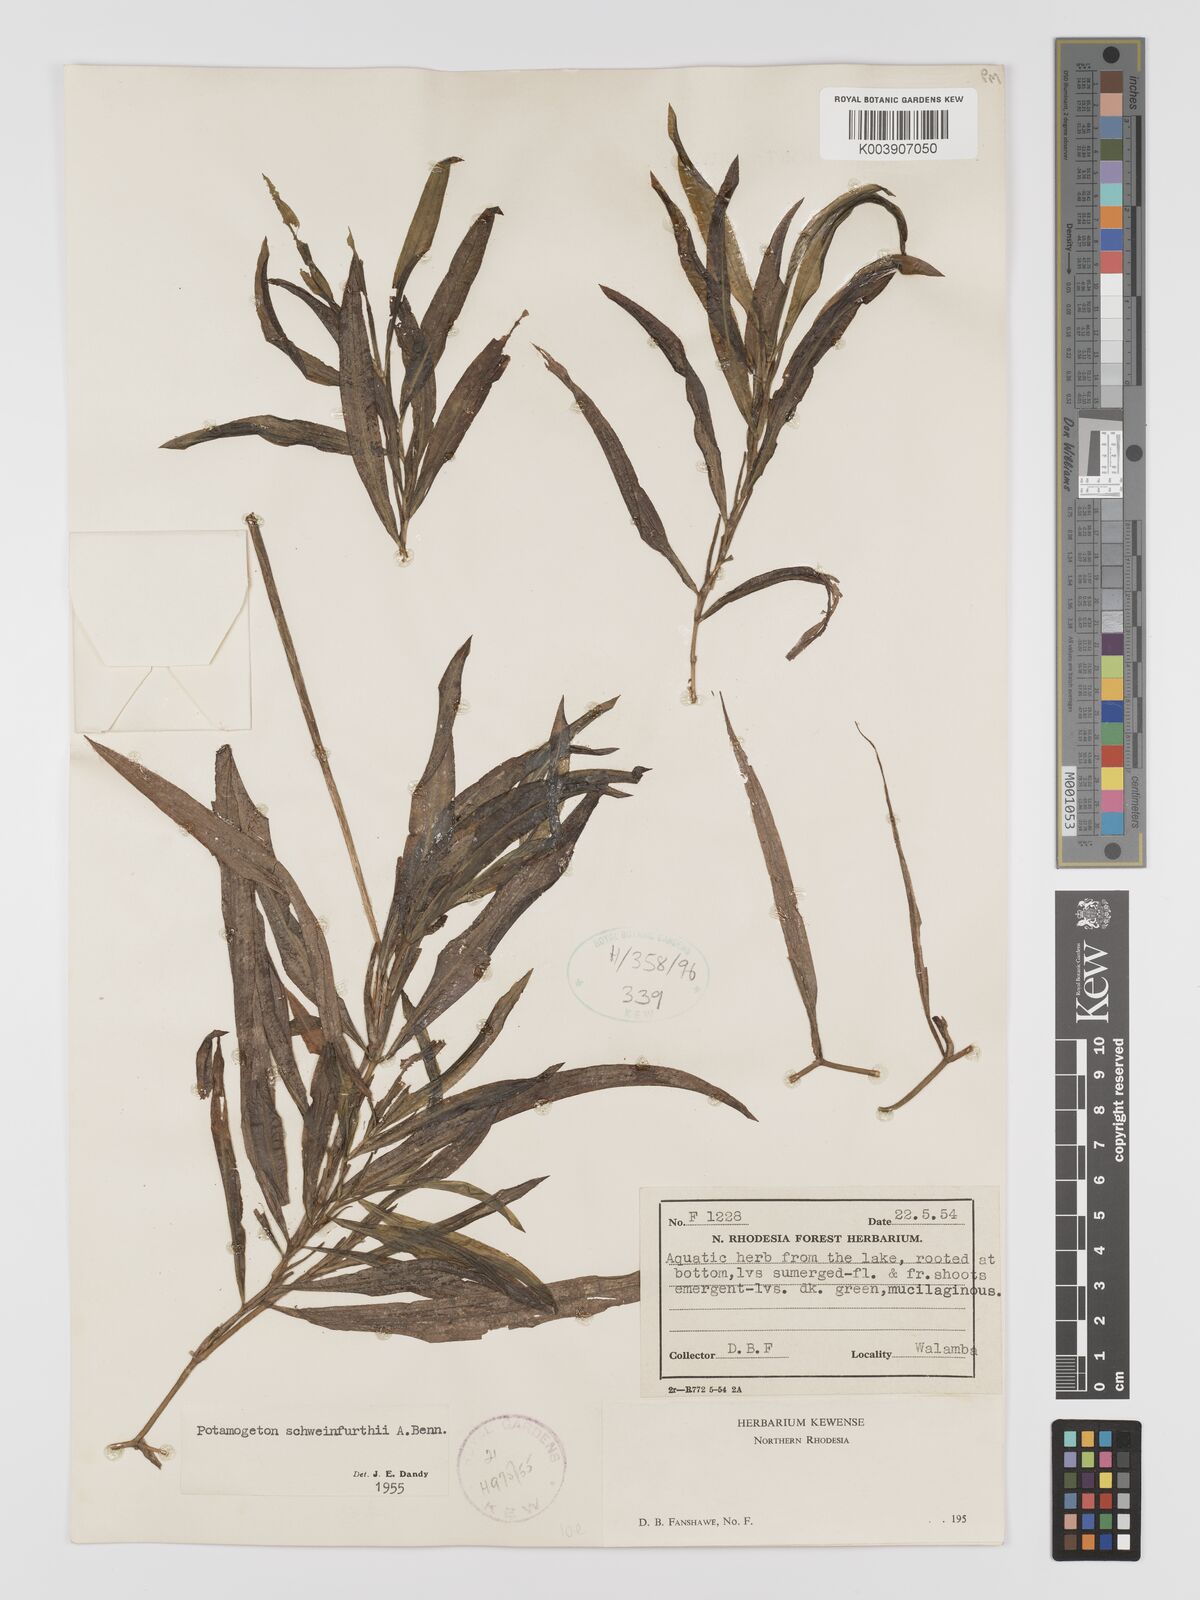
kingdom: Plantae
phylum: Tracheophyta
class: Liliopsida
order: Alismatales
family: Potamogetonaceae
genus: Potamogeton
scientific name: Potamogeton schweinfurthii
